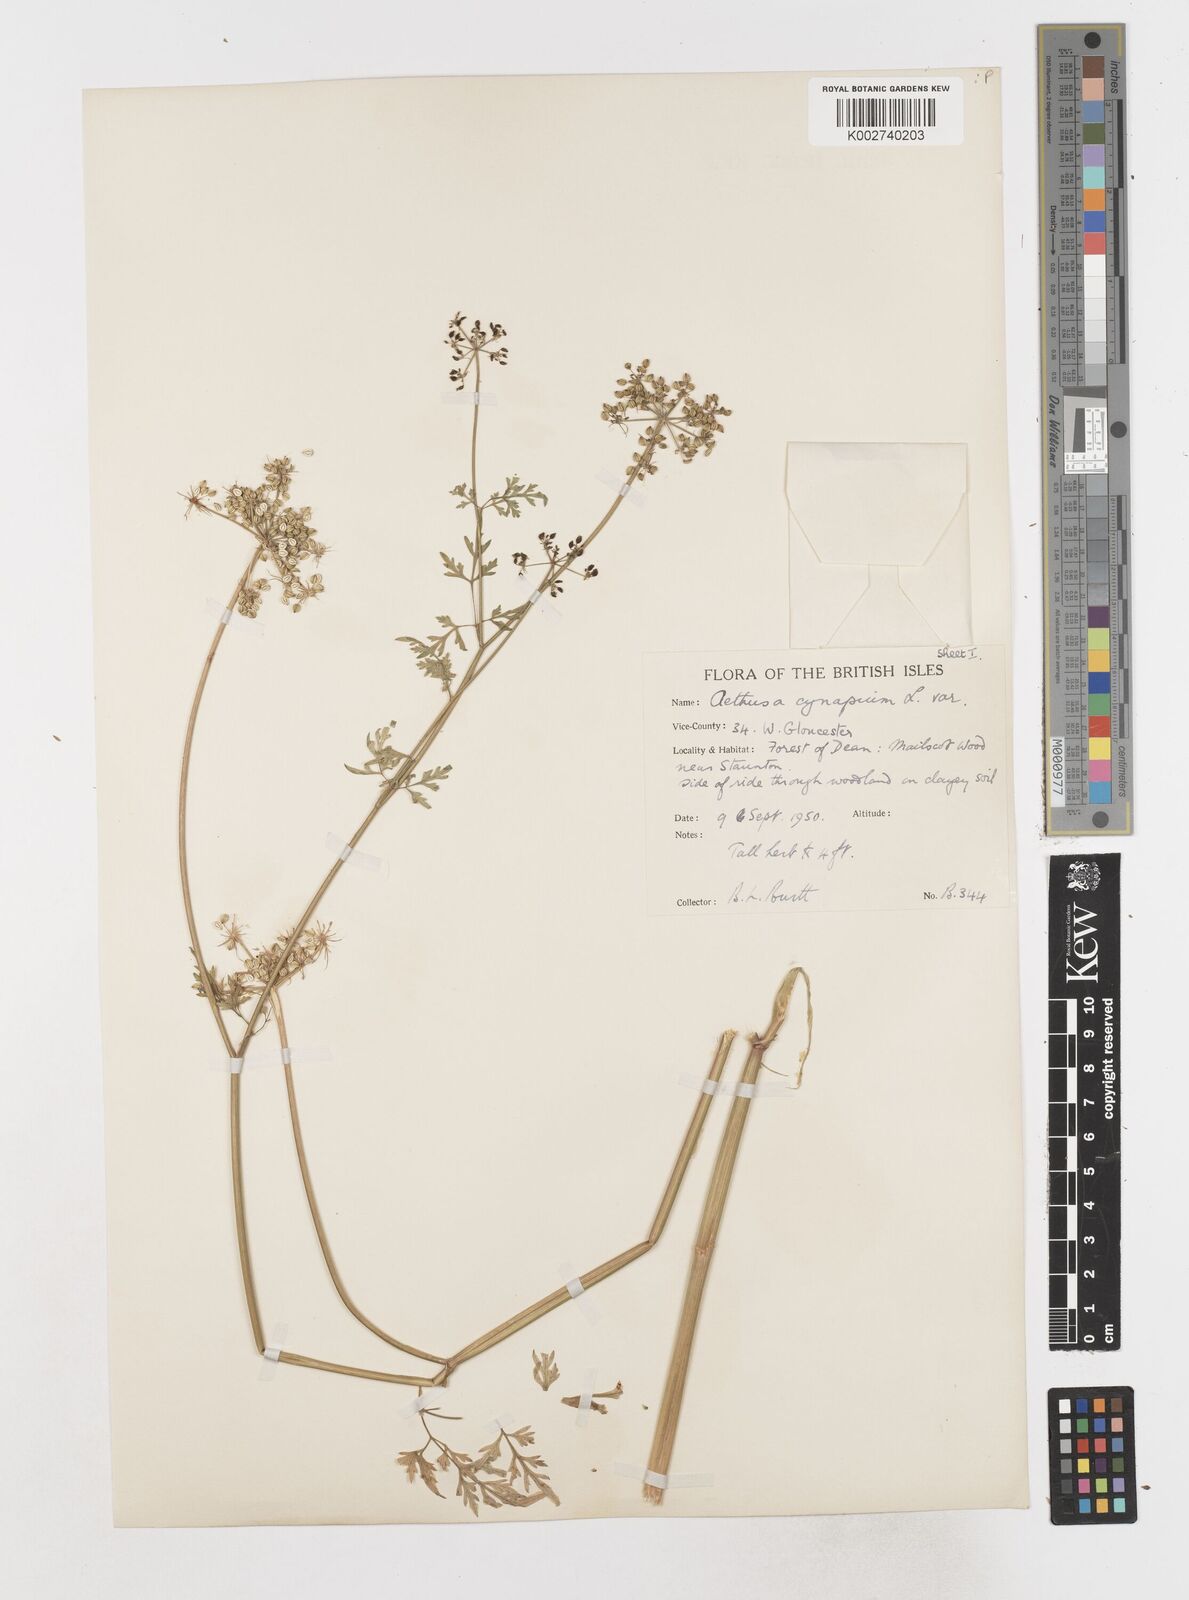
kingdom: Plantae
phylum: Tracheophyta
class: Magnoliopsida
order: Apiales
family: Apiaceae
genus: Aethusa
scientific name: Aethusa cynapium
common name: Fool's parsley
